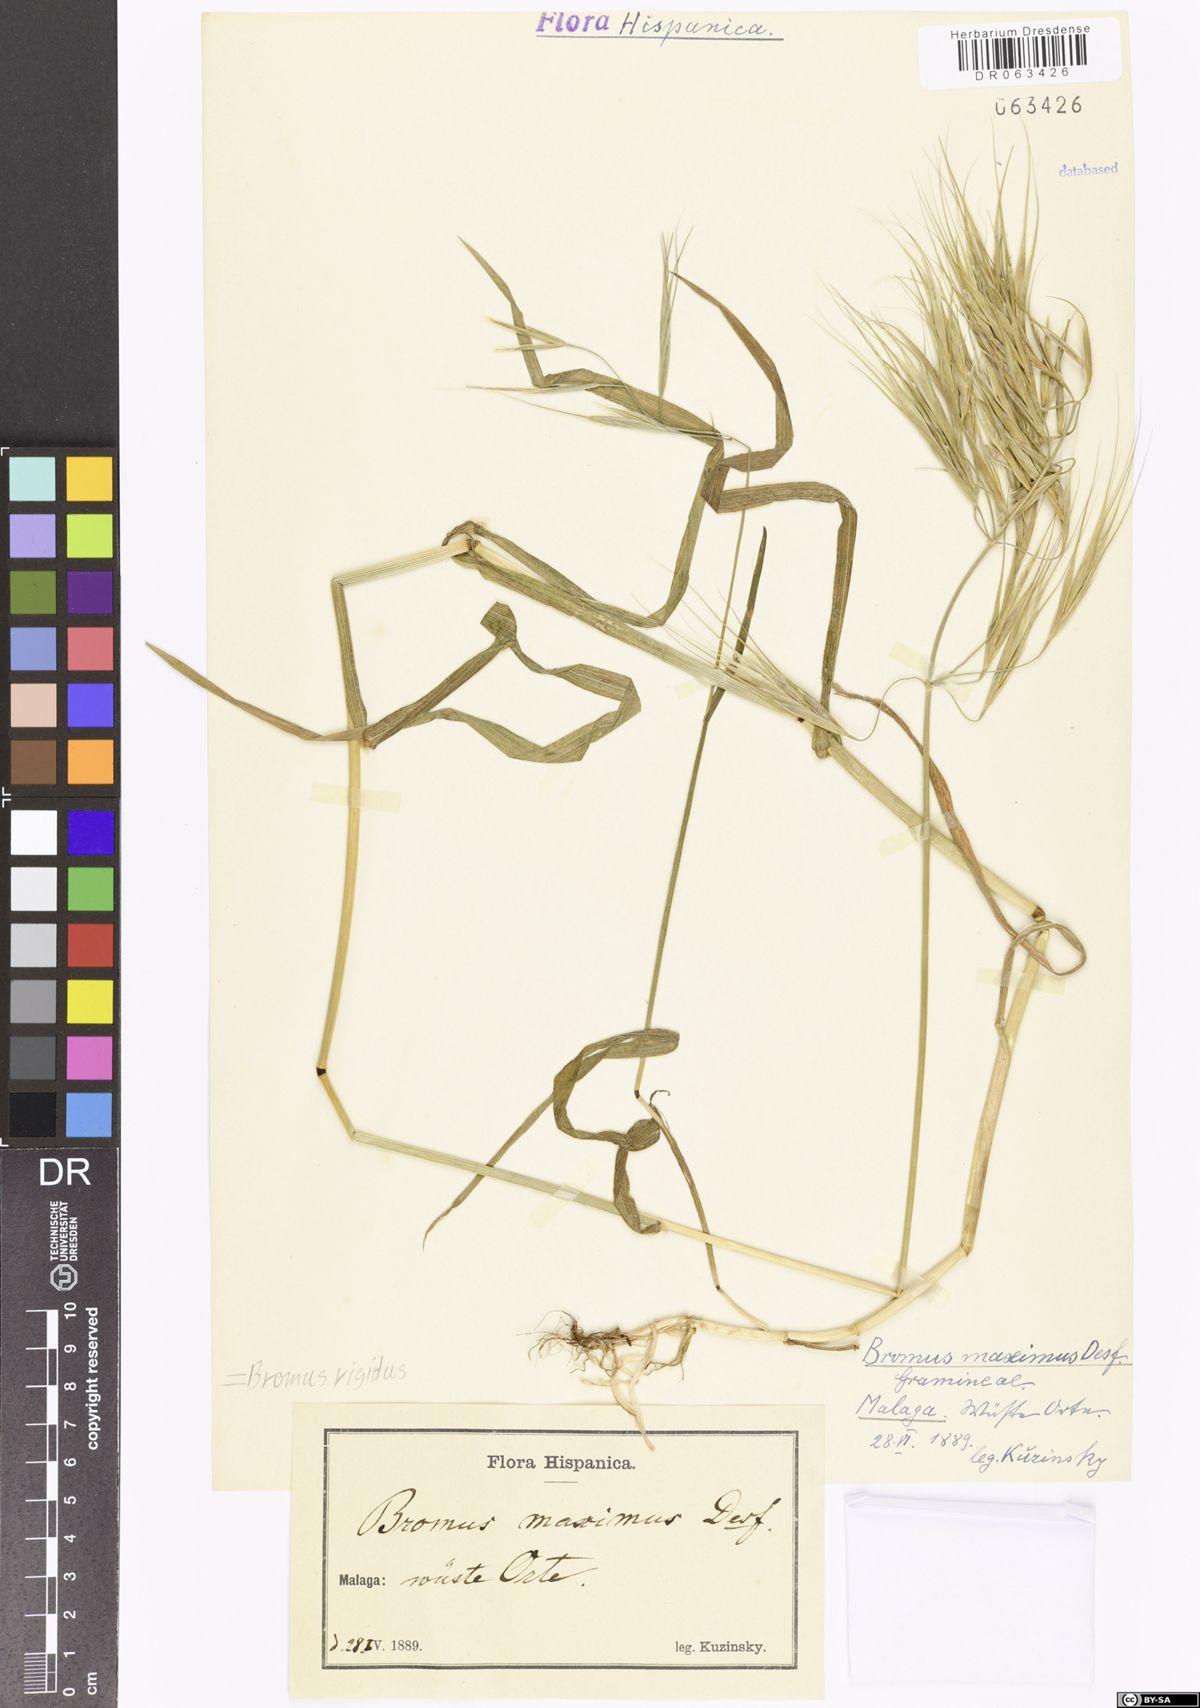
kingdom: Plantae
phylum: Tracheophyta
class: Liliopsida
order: Poales
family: Poaceae
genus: Bromus
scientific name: Bromus rigidus
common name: Ripgut brome
